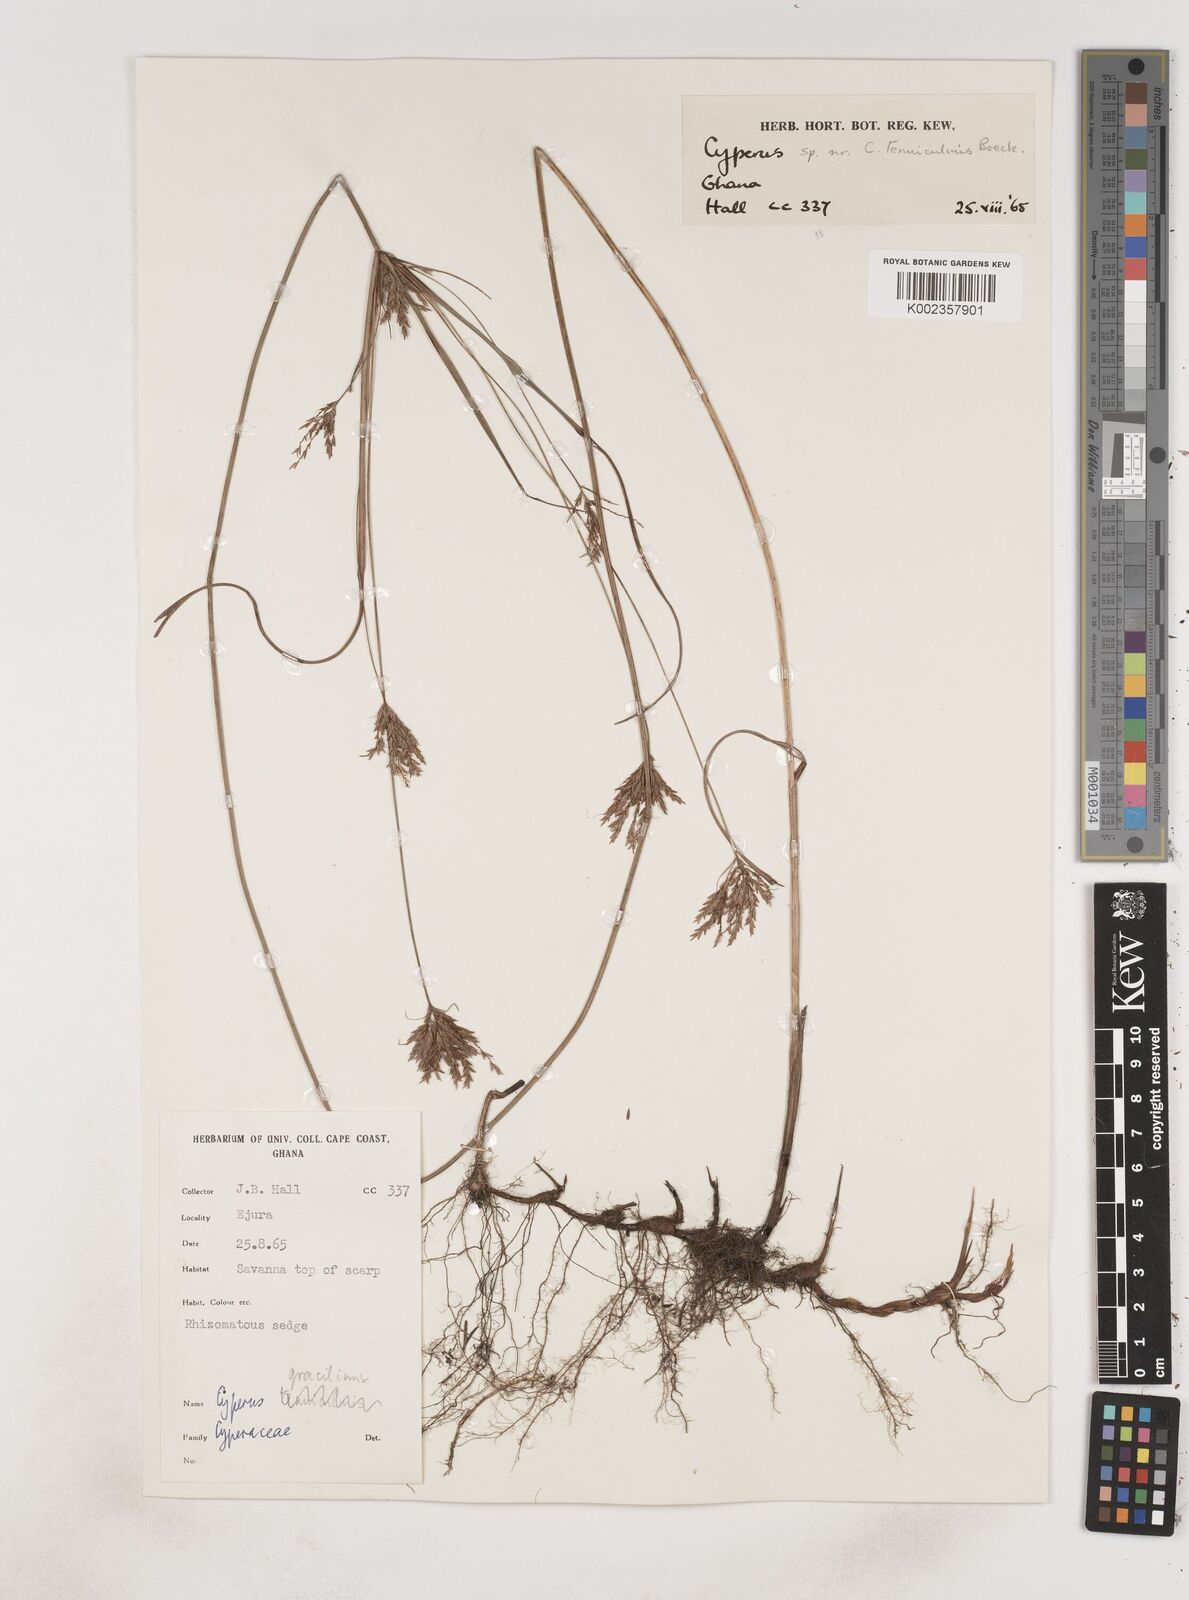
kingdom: Plantae
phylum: Tracheophyta
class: Liliopsida
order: Poales
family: Cyperaceae
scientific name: Cyperaceae
